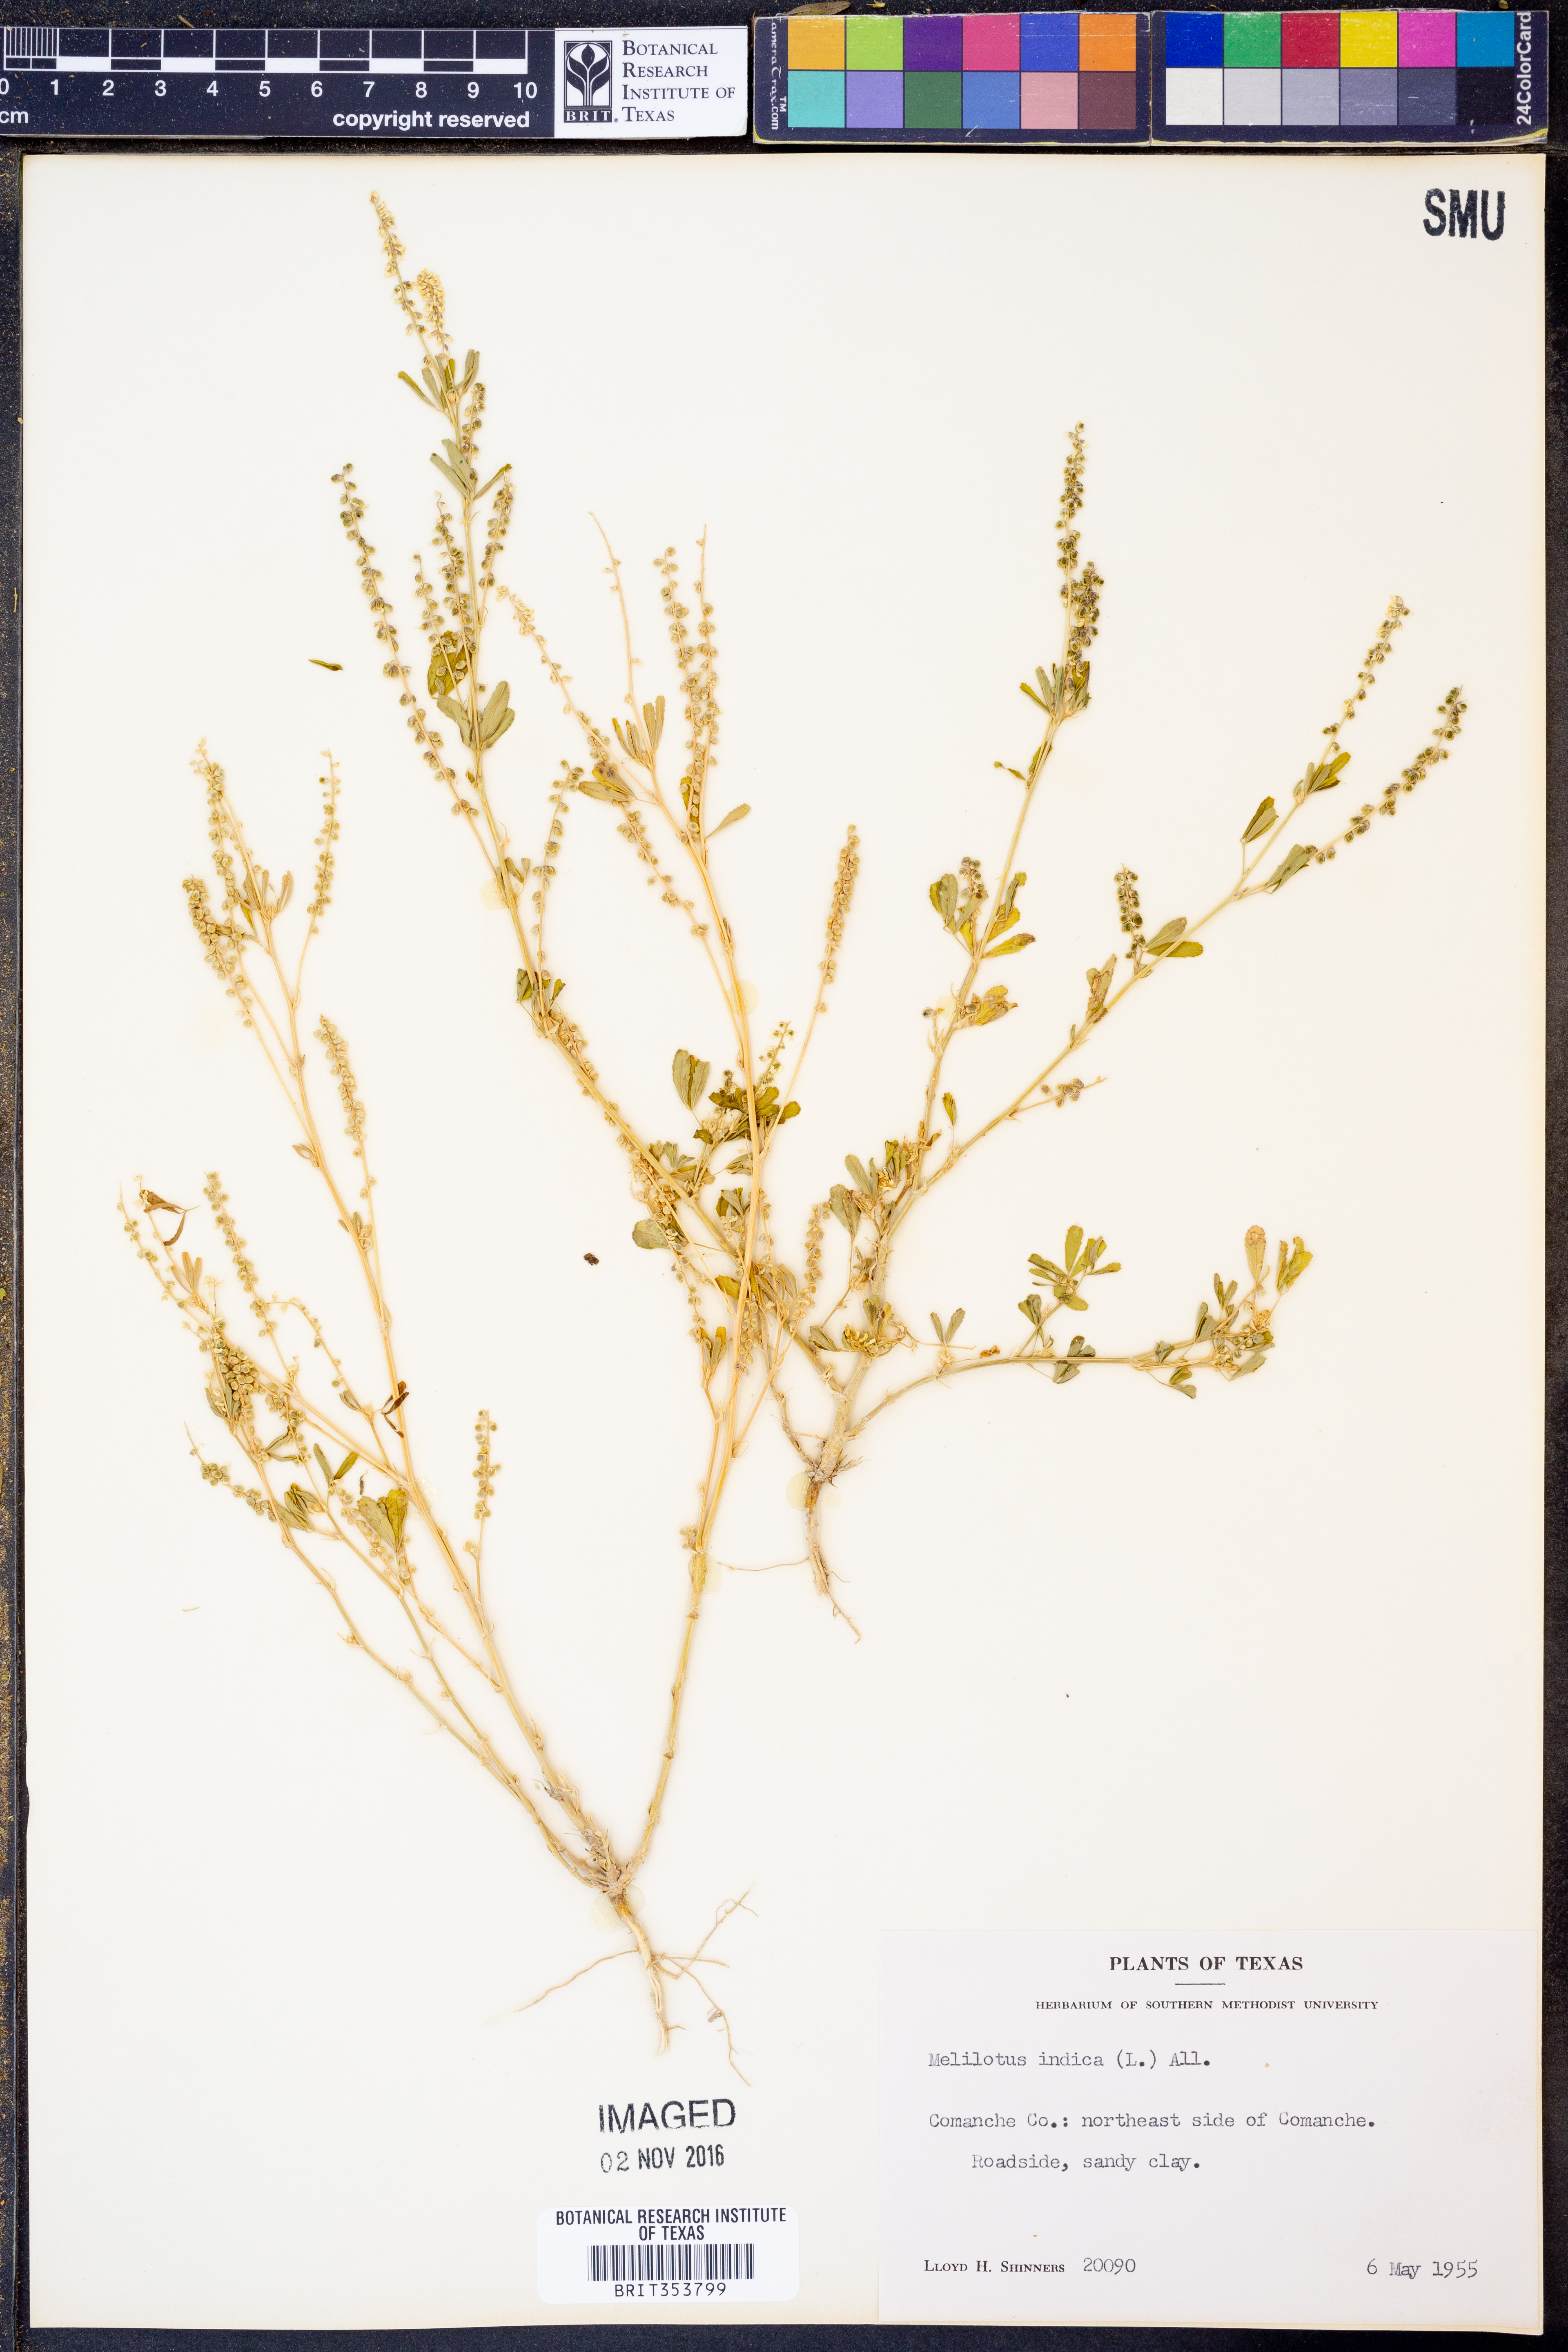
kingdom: Plantae
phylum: Tracheophyta
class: Magnoliopsida
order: Fabales
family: Fabaceae
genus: Melilotus
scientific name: Melilotus indicus
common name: Small melilot
